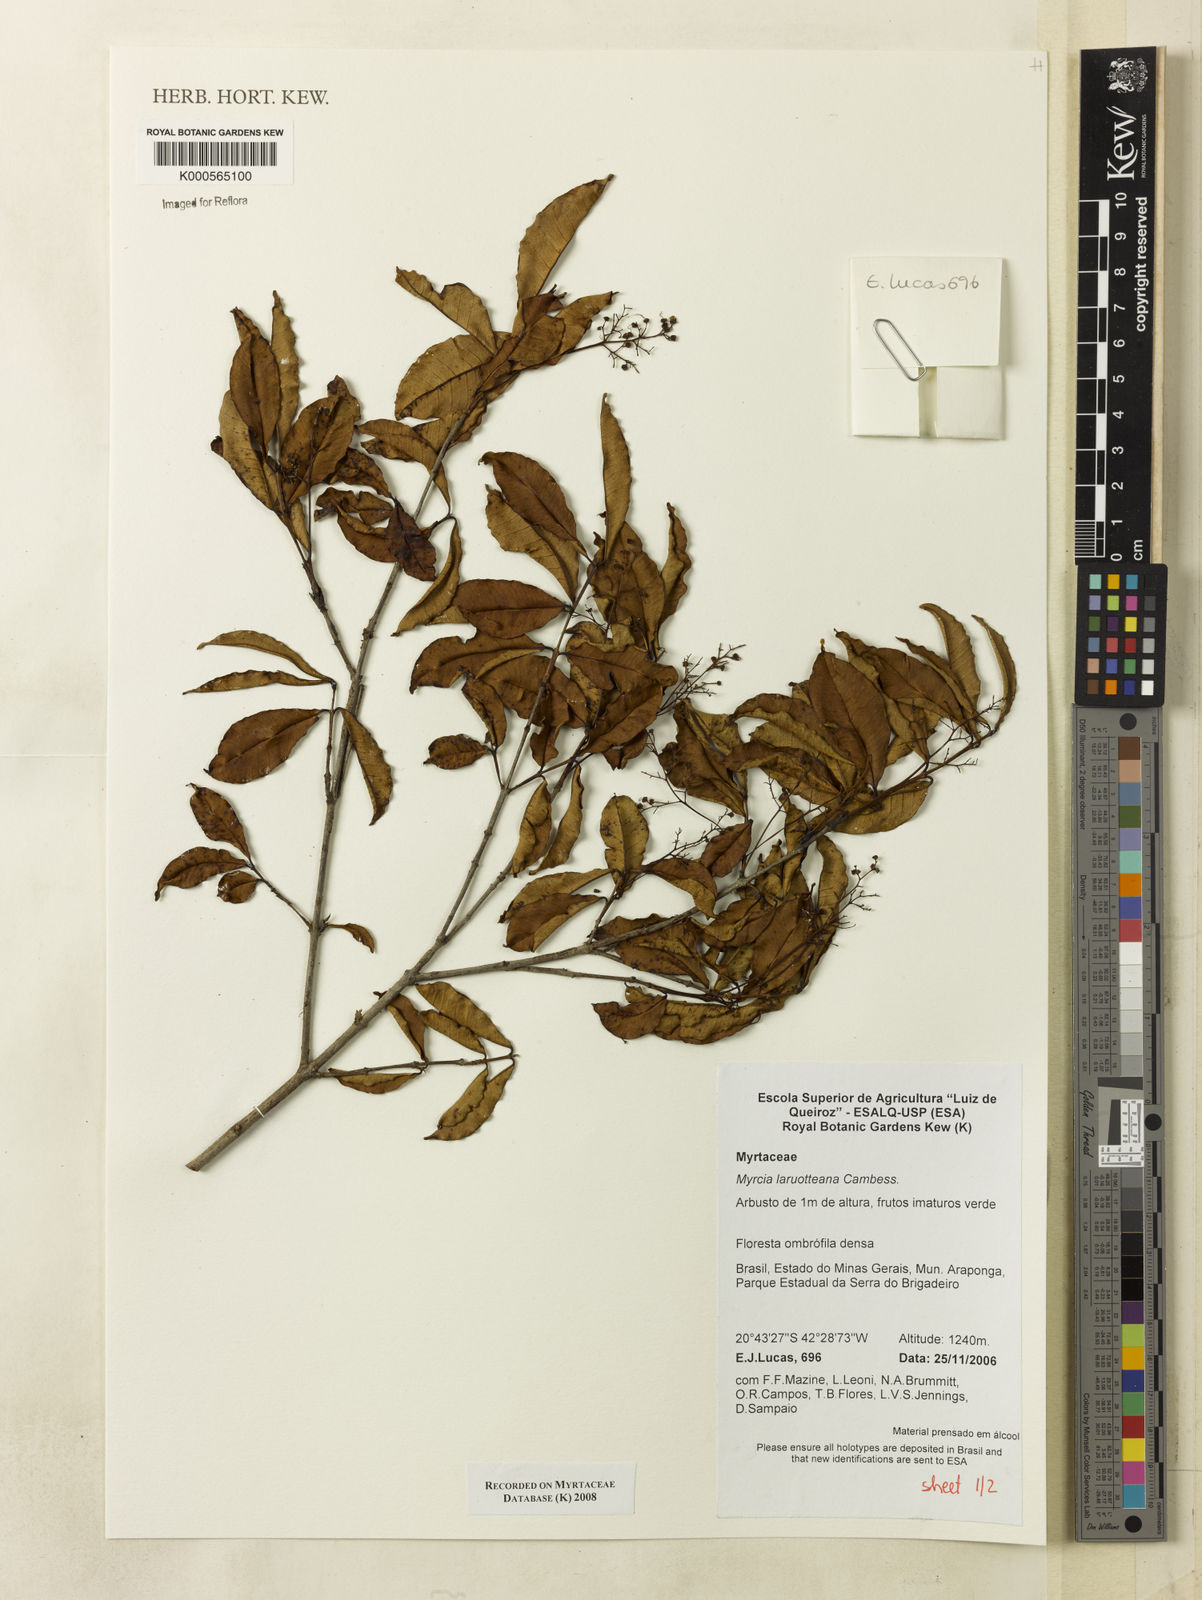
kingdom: Plantae
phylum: Tracheophyta
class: Magnoliopsida
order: Myrtales
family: Myrtaceae
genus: Myrcia
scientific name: Myrcia laruotteana
